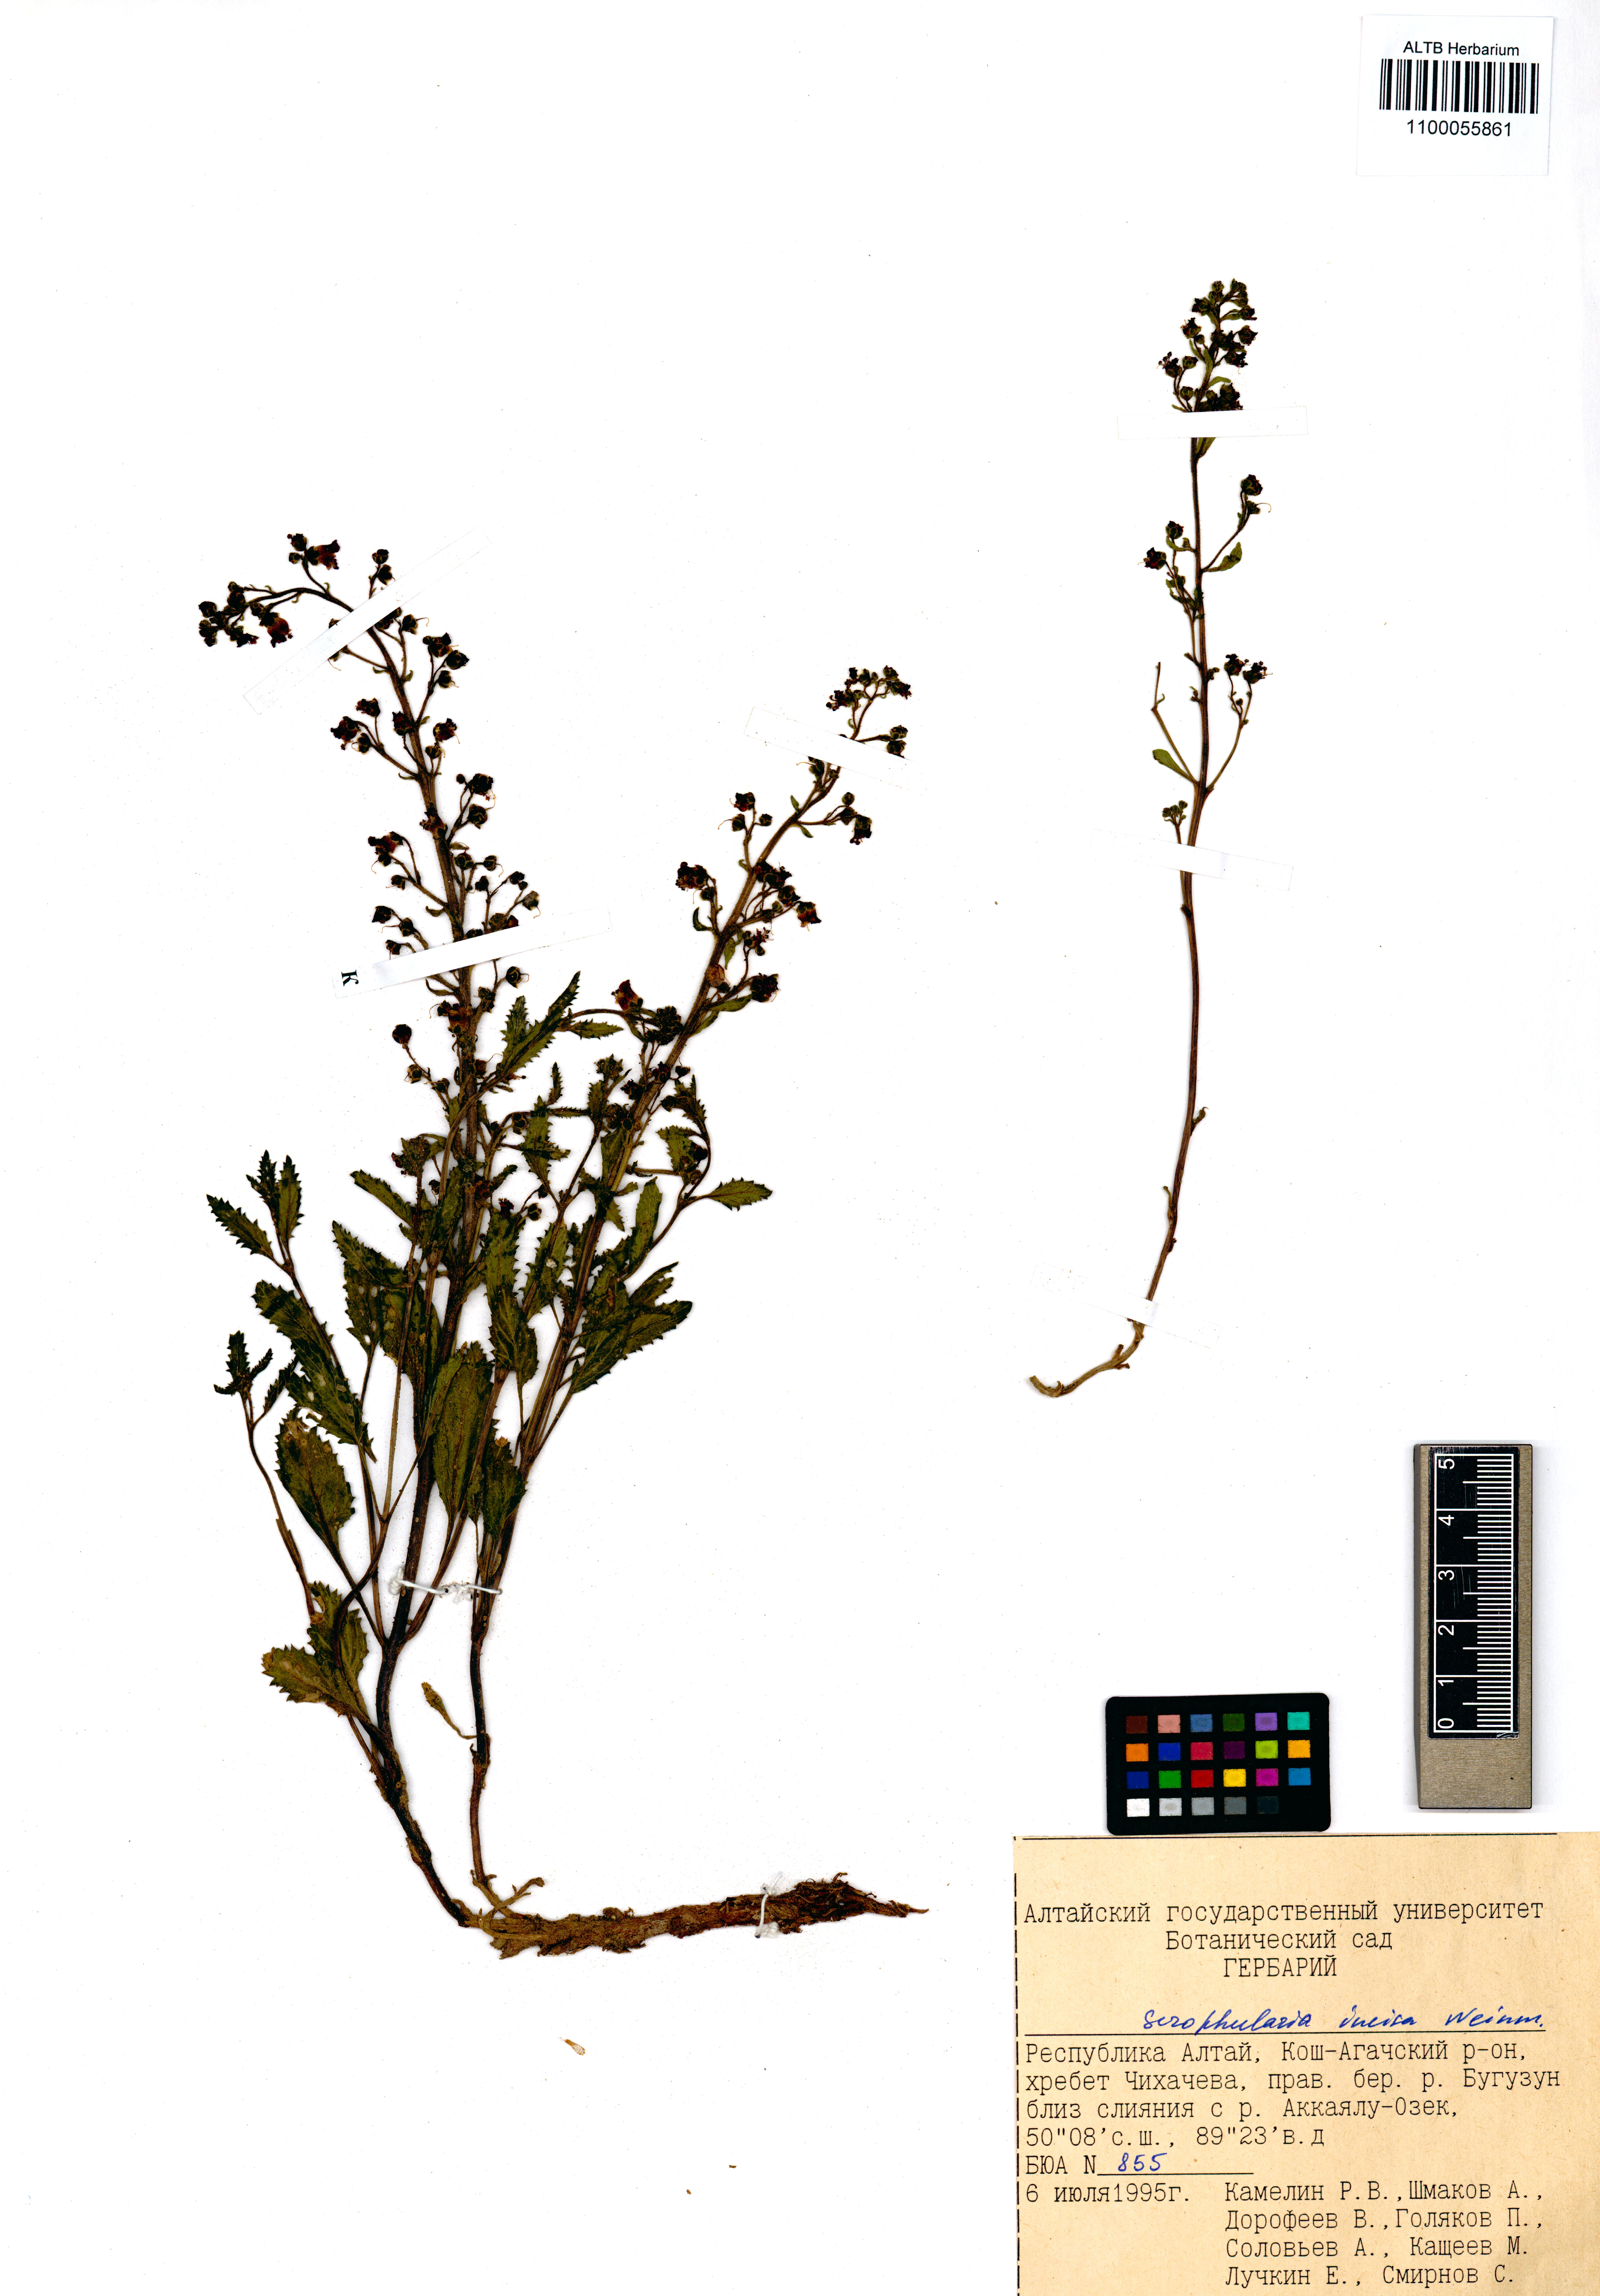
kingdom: Plantae
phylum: Tracheophyta
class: Magnoliopsida
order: Lamiales
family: Scrophulariaceae
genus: Scrophularia
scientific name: Scrophularia incisa
